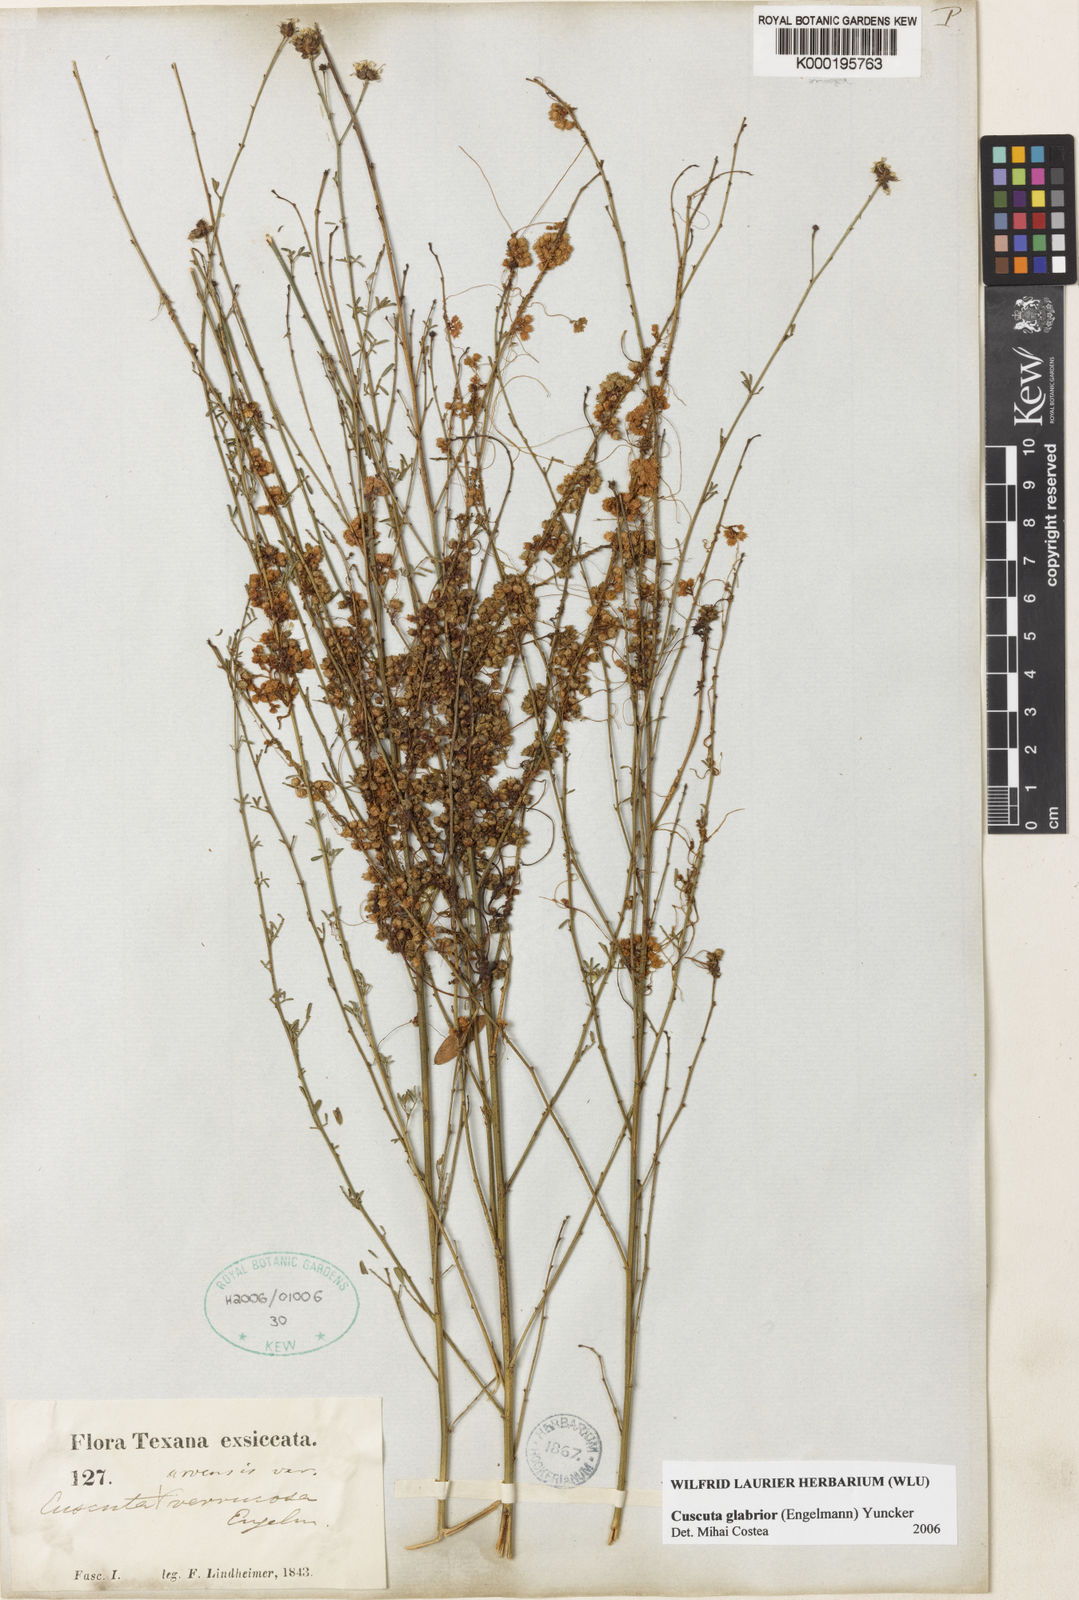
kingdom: Plantae
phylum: Tracheophyta
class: Magnoliopsida
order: Solanales
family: Convolvulaceae
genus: Cuscuta
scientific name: Cuscuta pentagona
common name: Fiveangled dodder
